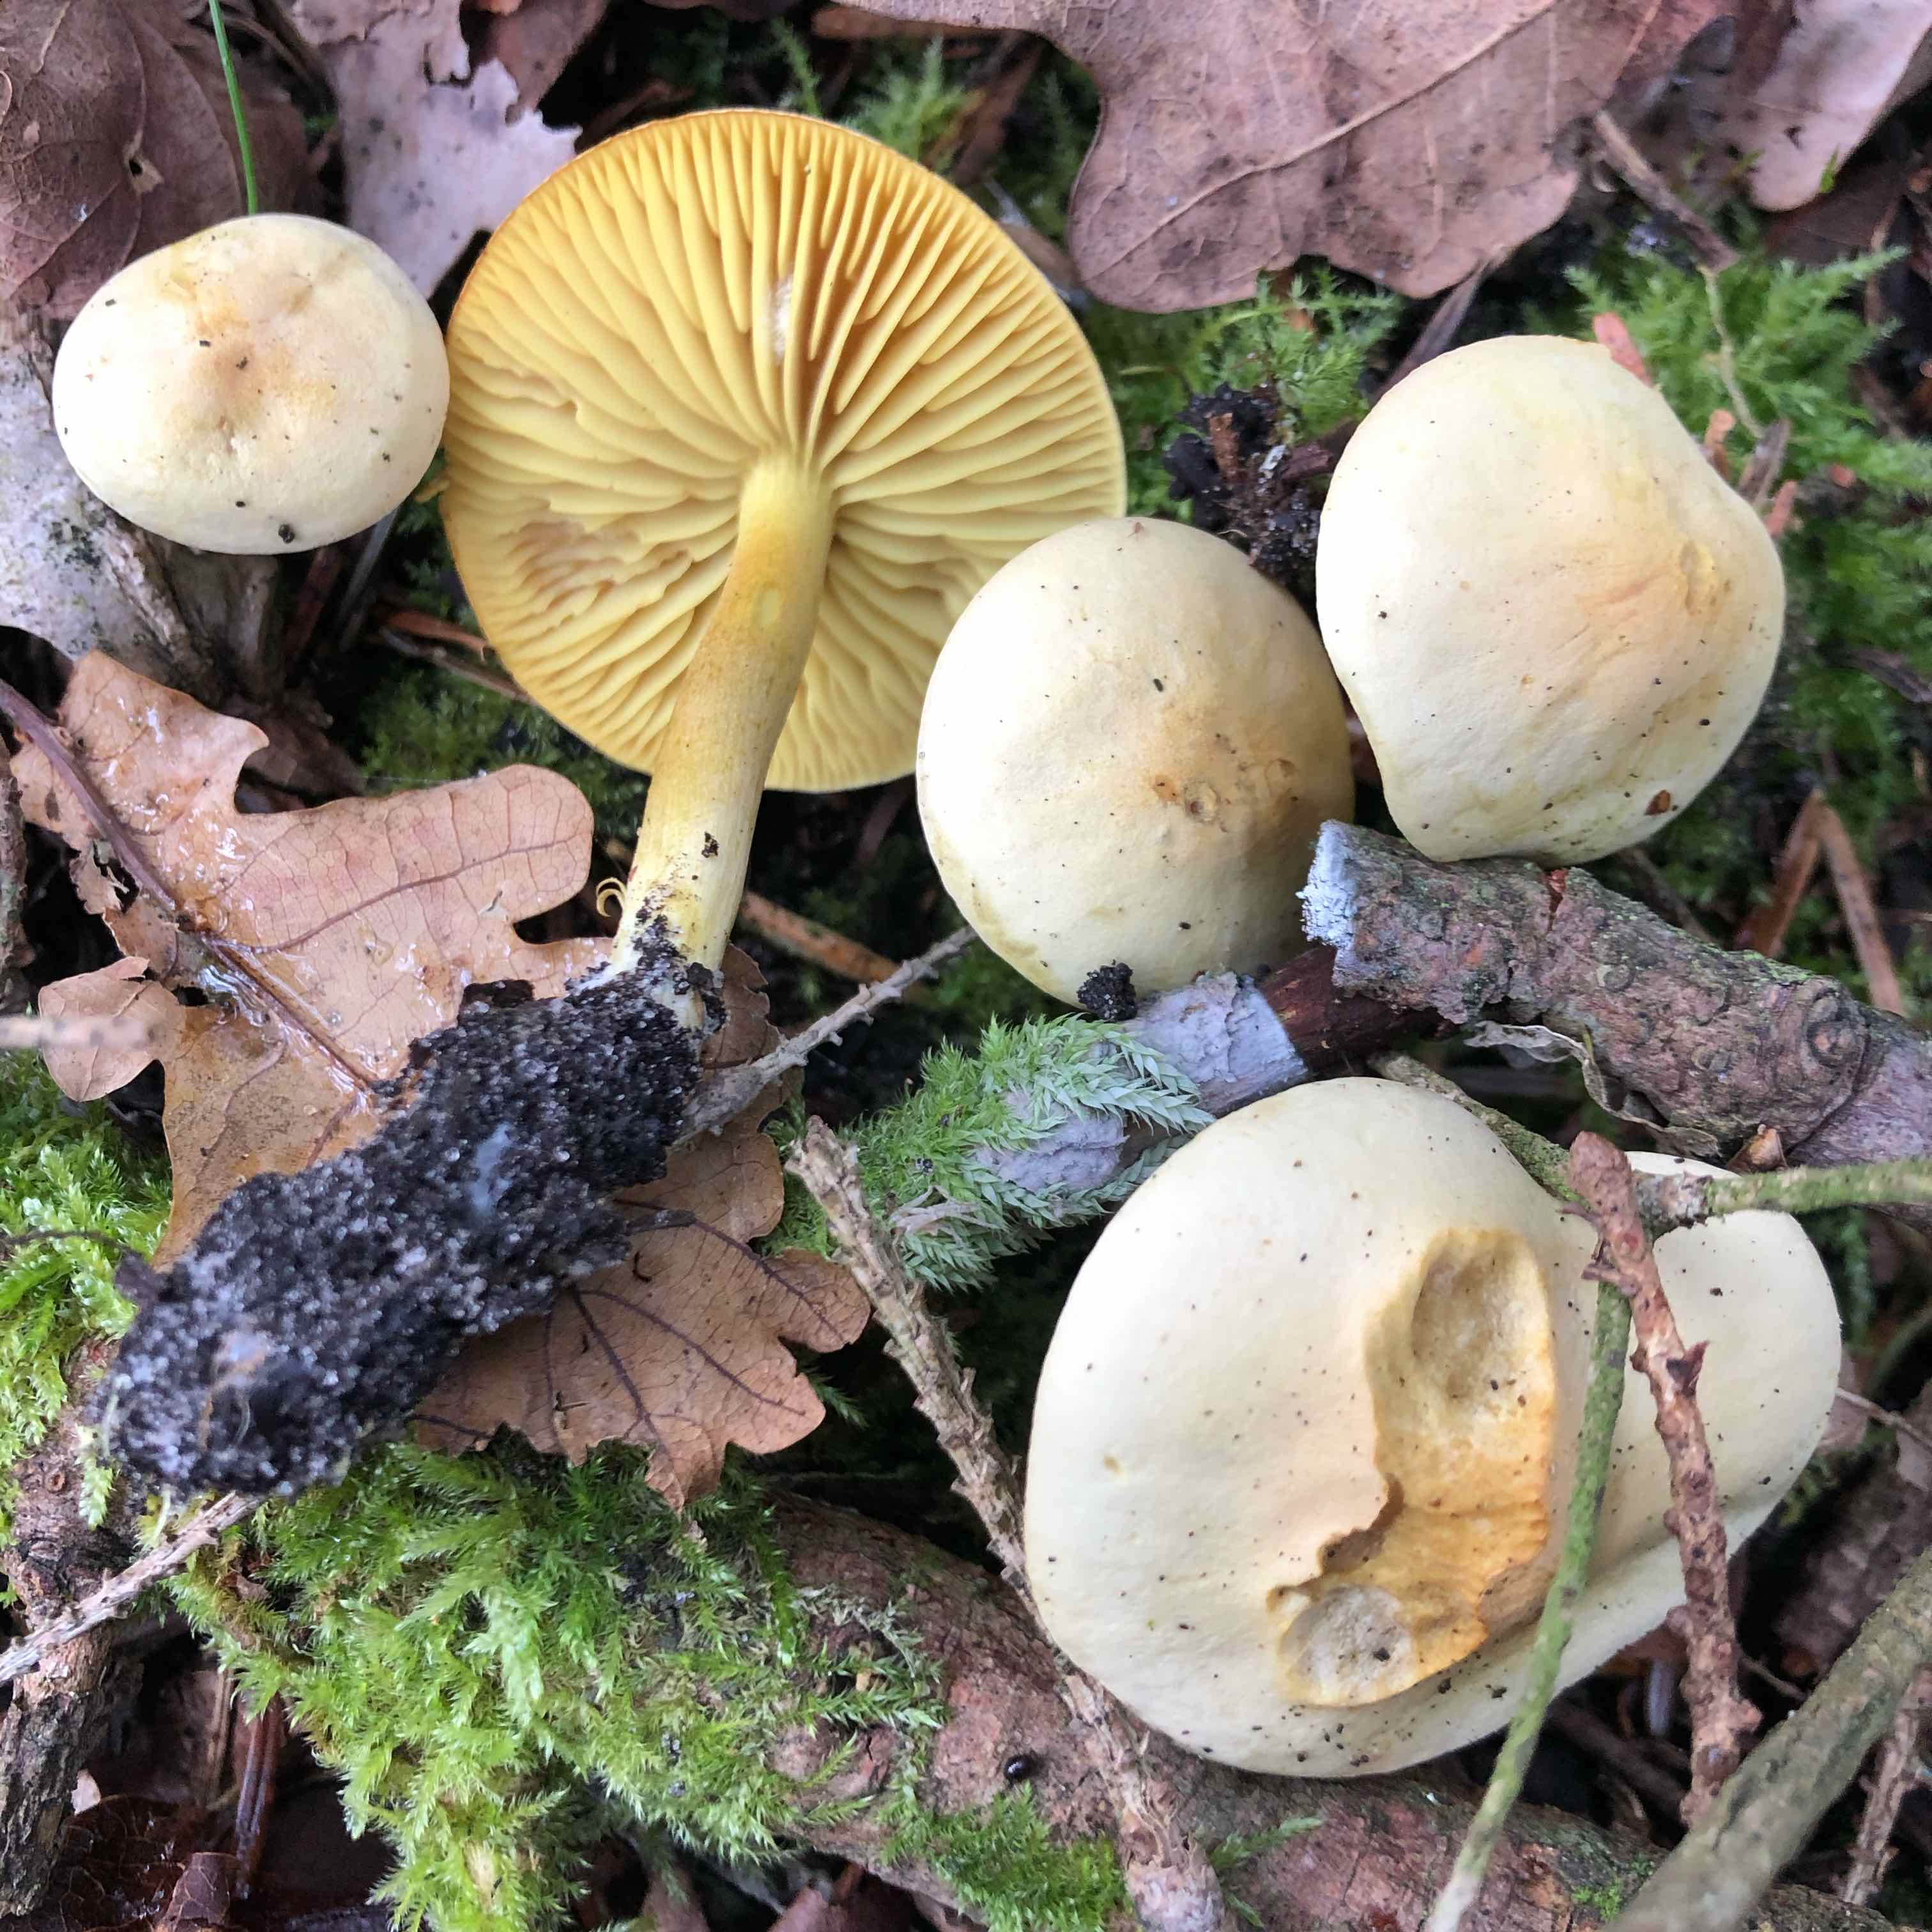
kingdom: Fungi
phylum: Basidiomycota
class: Agaricomycetes
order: Agaricales
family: Tricholomataceae
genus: Tricholoma
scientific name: Tricholoma sulphureum
